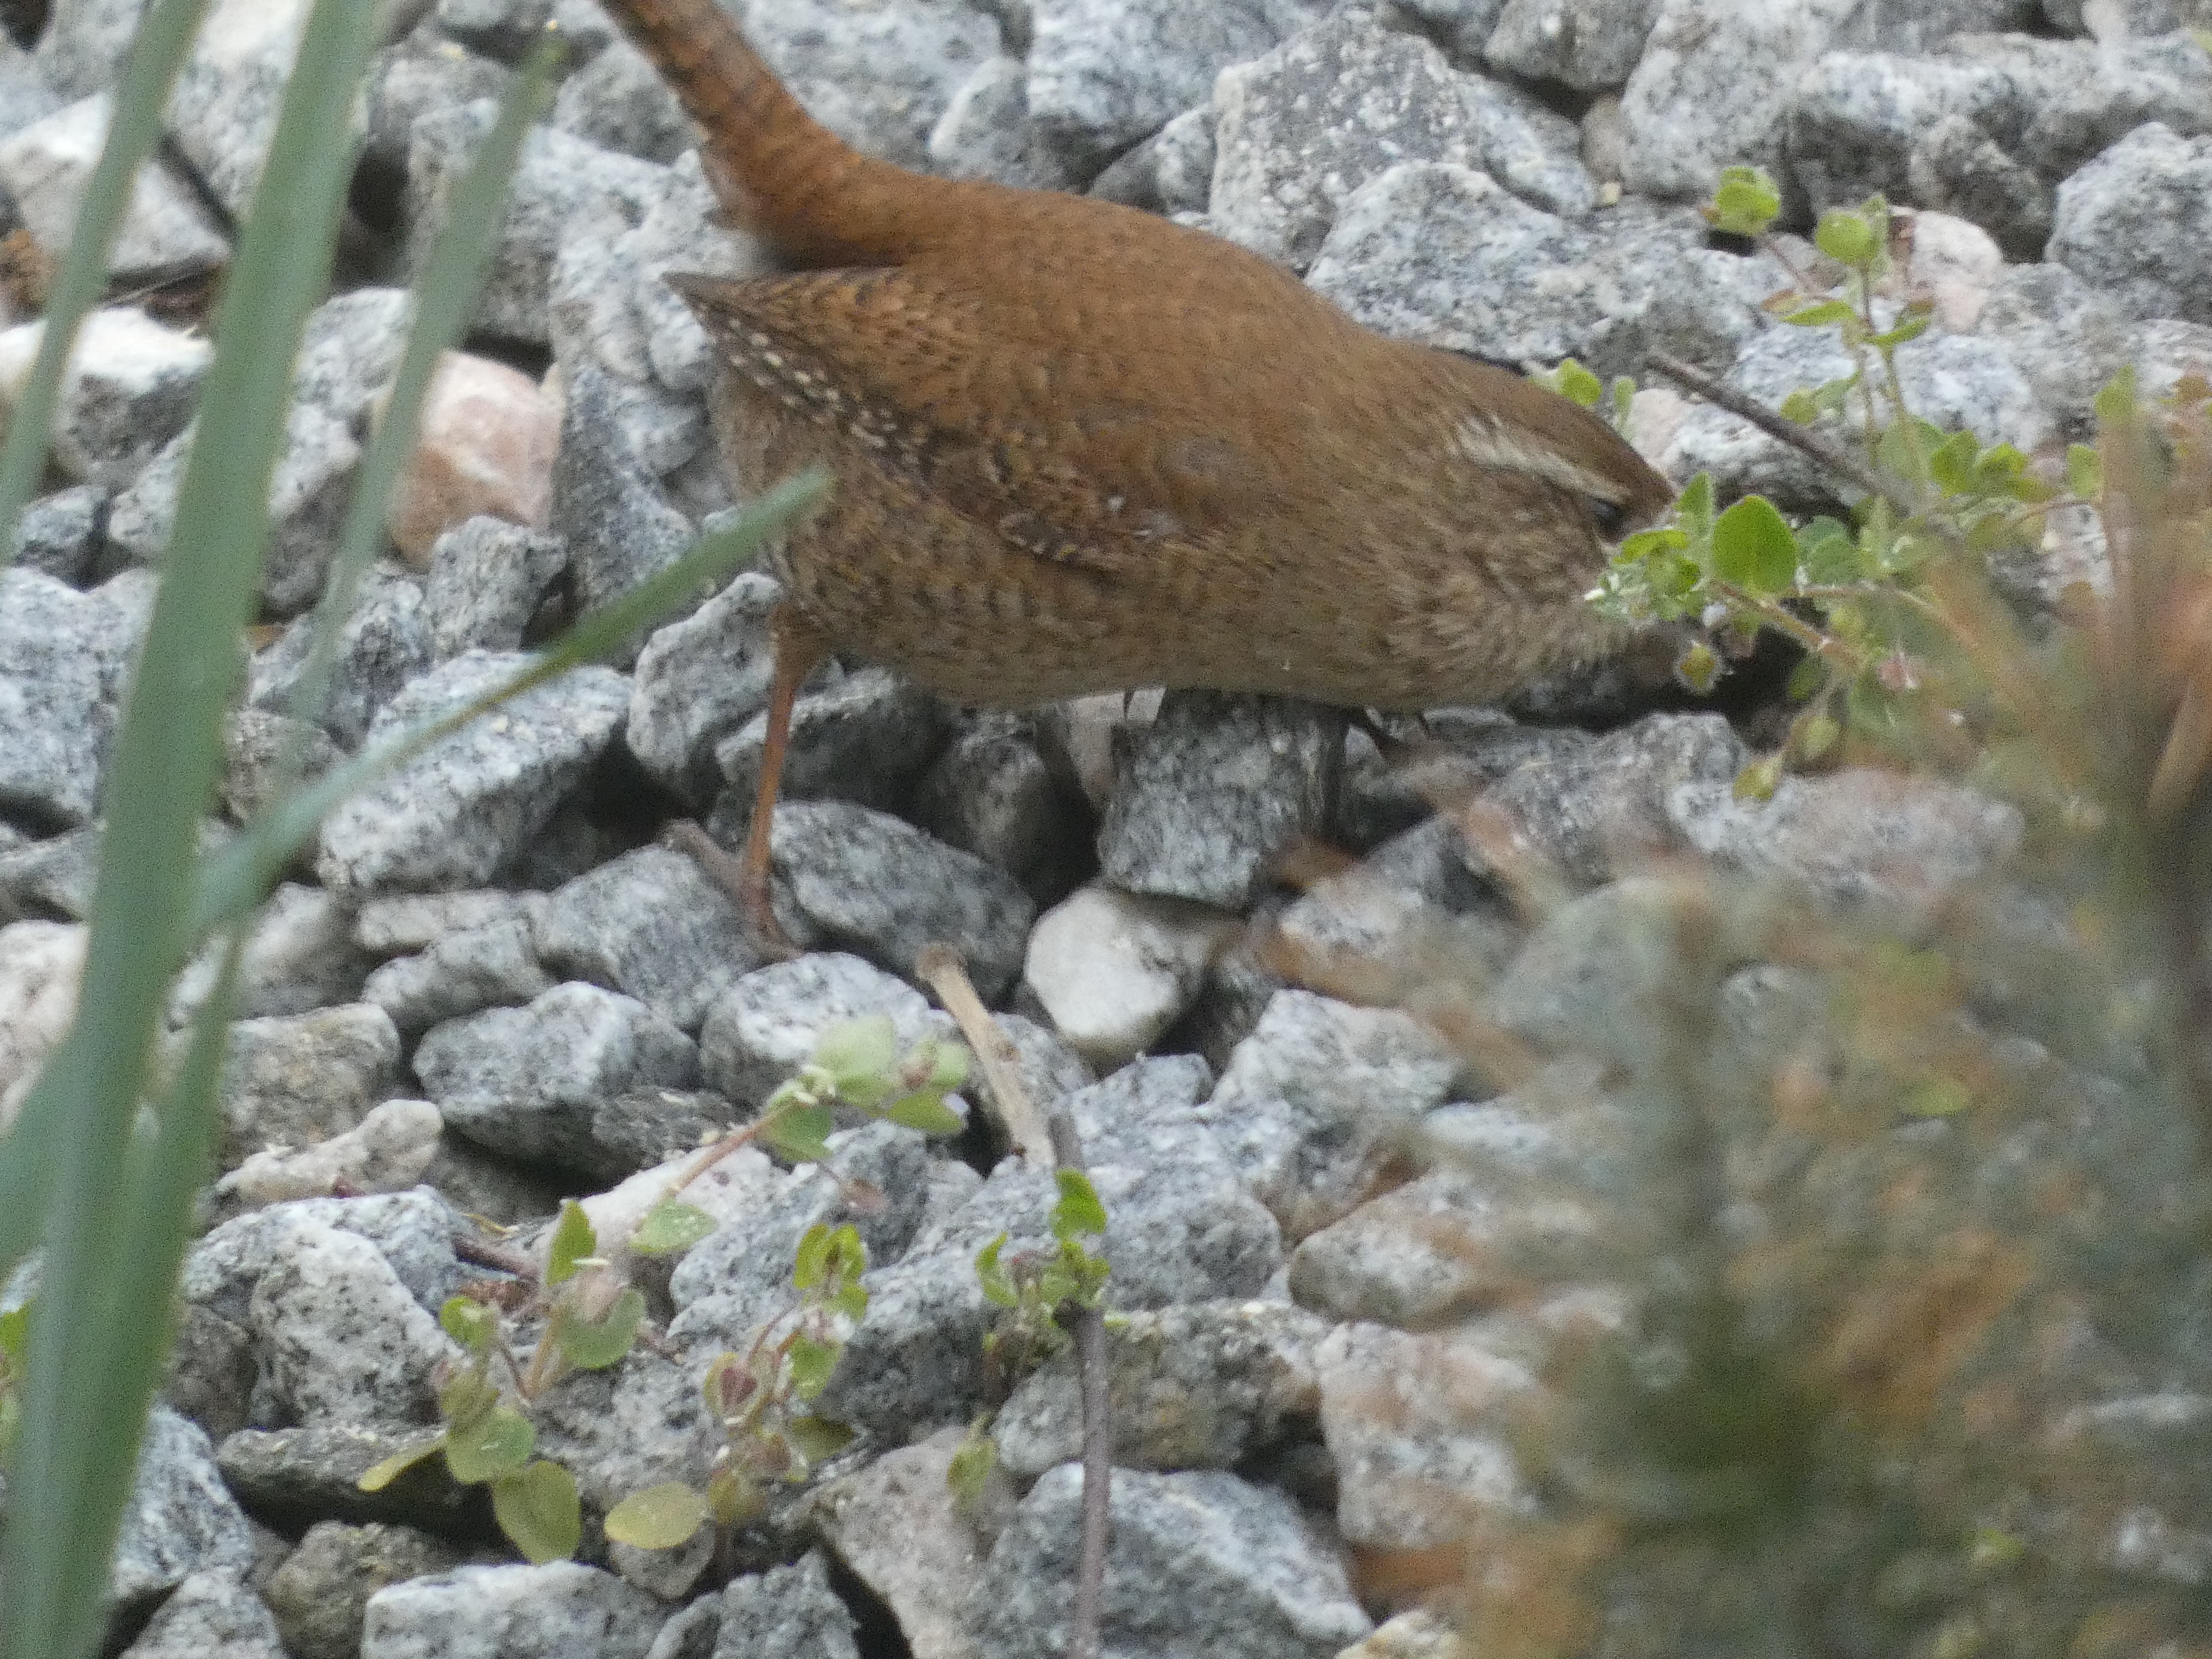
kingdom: Animalia
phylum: Chordata
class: Aves
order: Passeriformes
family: Troglodytidae
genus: Troglodytes
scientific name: Troglodytes troglodytes
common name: Gærdesmutte
